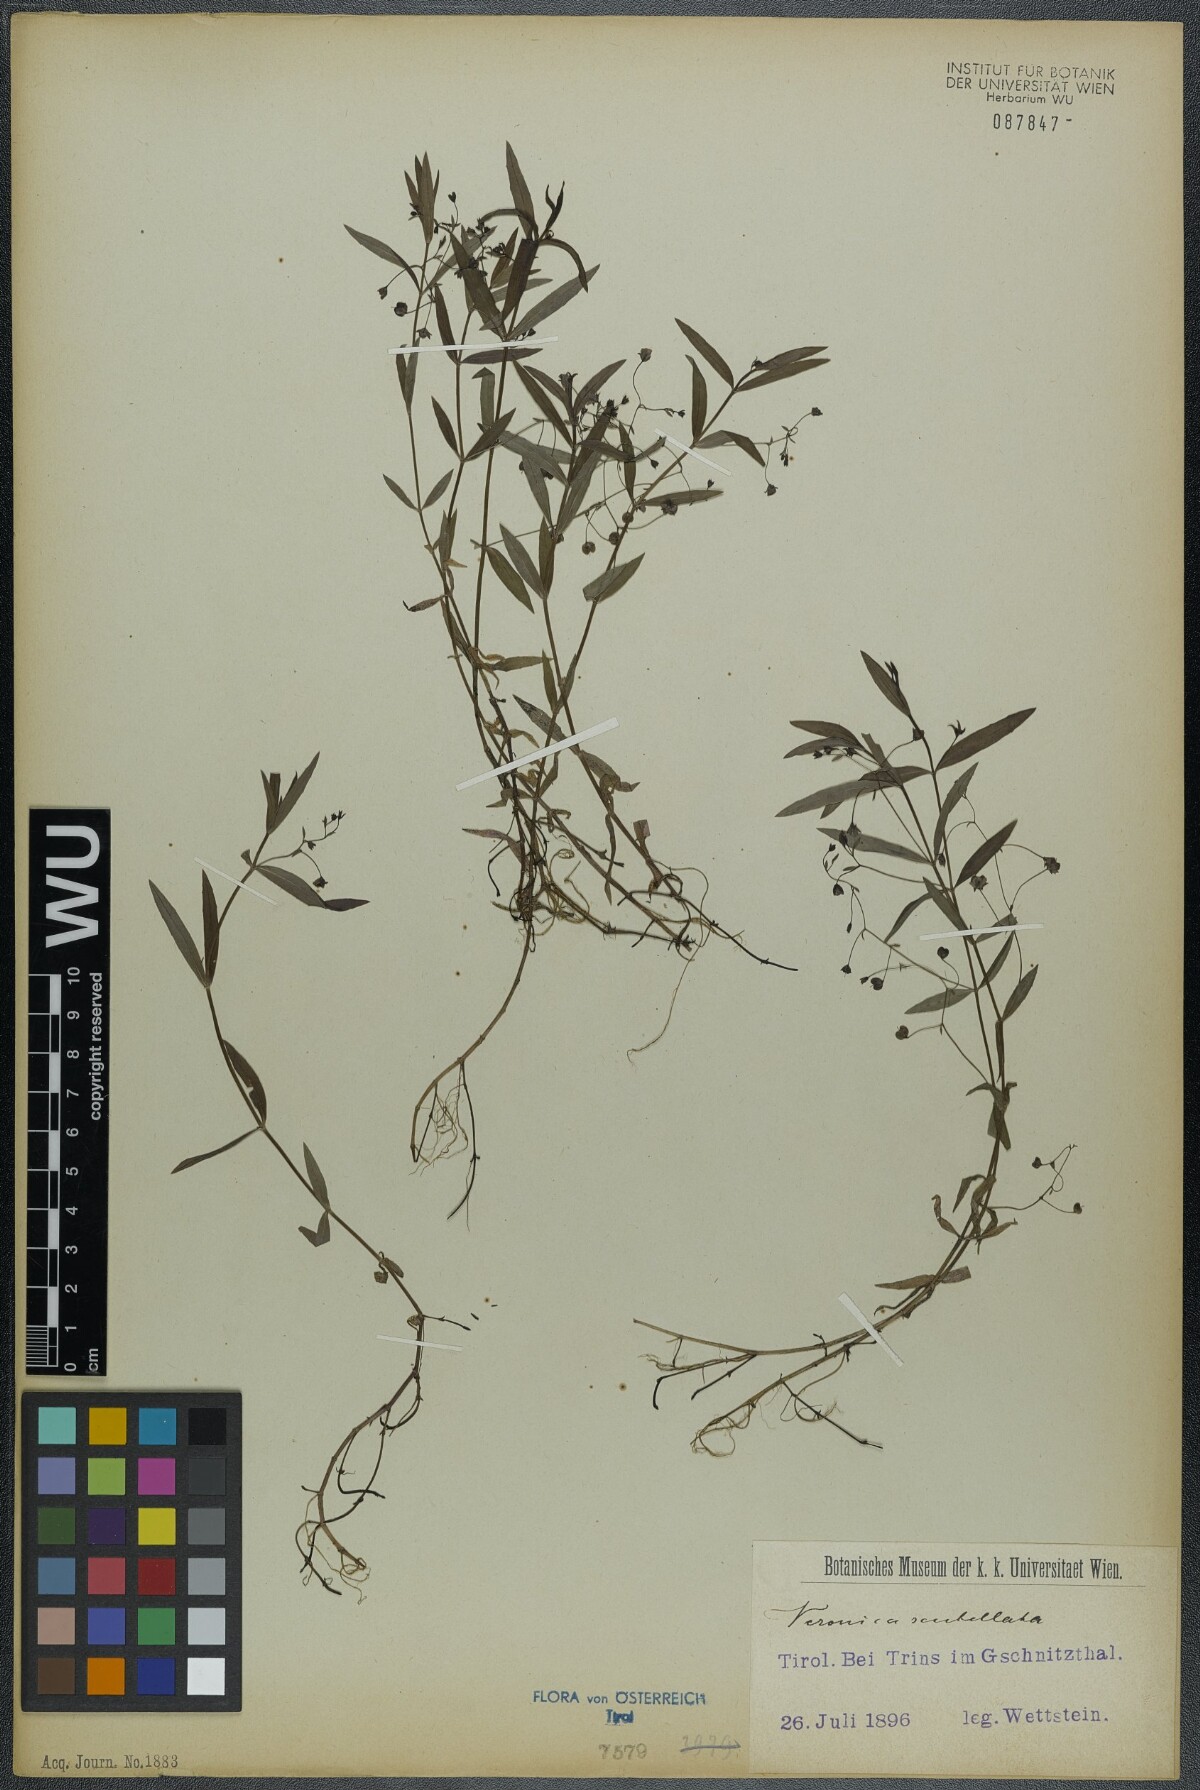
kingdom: Plantae
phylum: Tracheophyta
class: Magnoliopsida
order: Lamiales
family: Plantaginaceae
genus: Veronica
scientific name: Veronica scutellata
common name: Marsh speedwell
